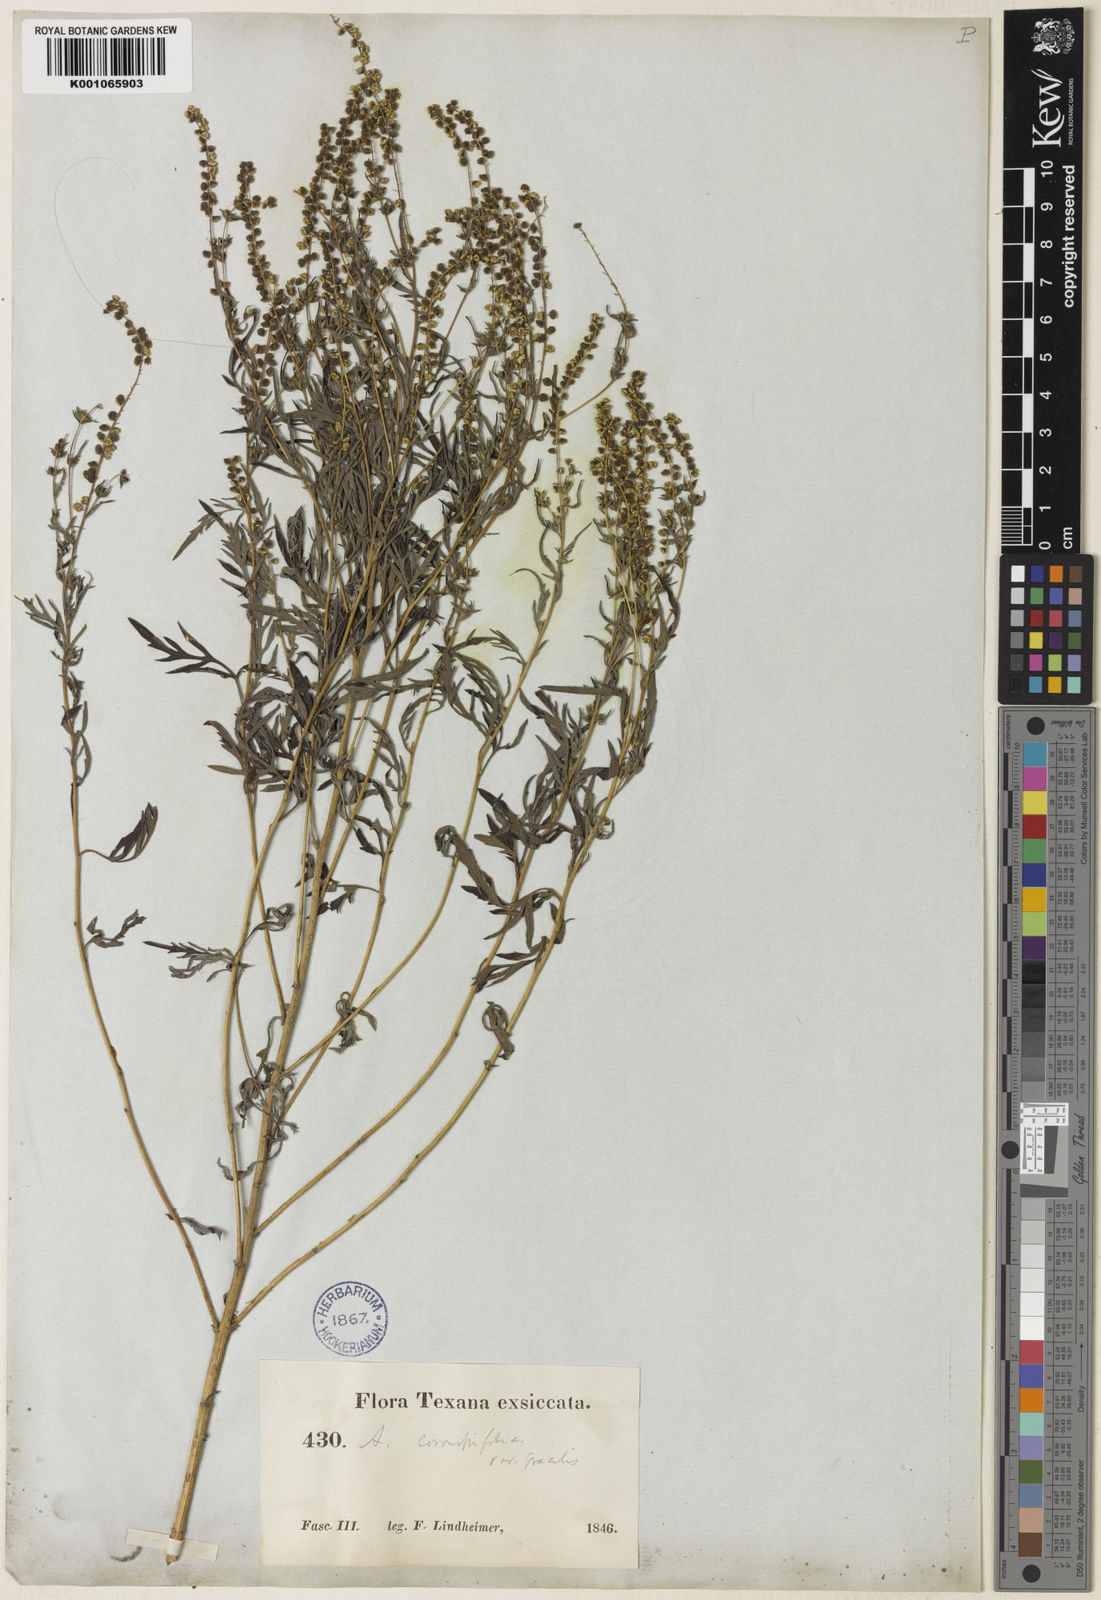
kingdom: Plantae
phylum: Tracheophyta
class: Magnoliopsida
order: Asterales
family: Asteraceae
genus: Ambrosia
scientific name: Ambrosia artemisiifolia
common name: Annual ragweed
